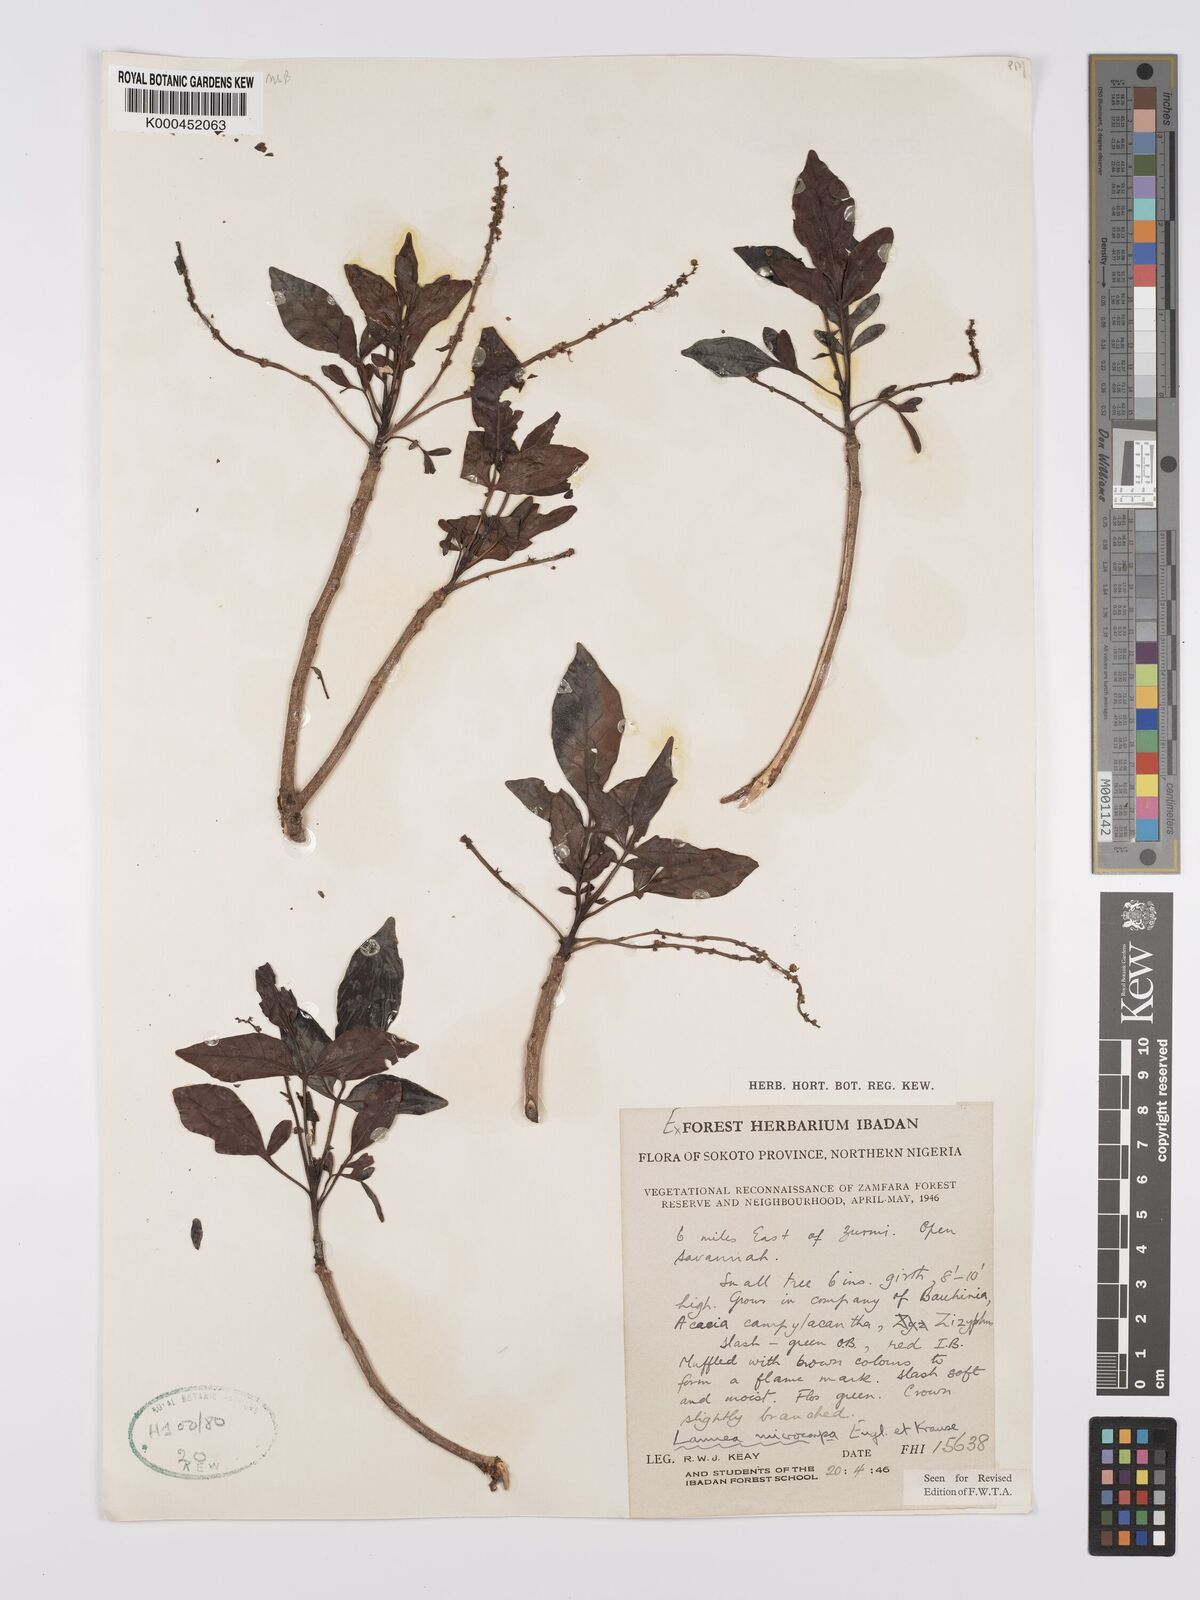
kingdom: Plantae
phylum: Tracheophyta
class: Magnoliopsida
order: Sapindales
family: Anacardiaceae
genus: Lannea
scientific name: Lannea microcarpa
